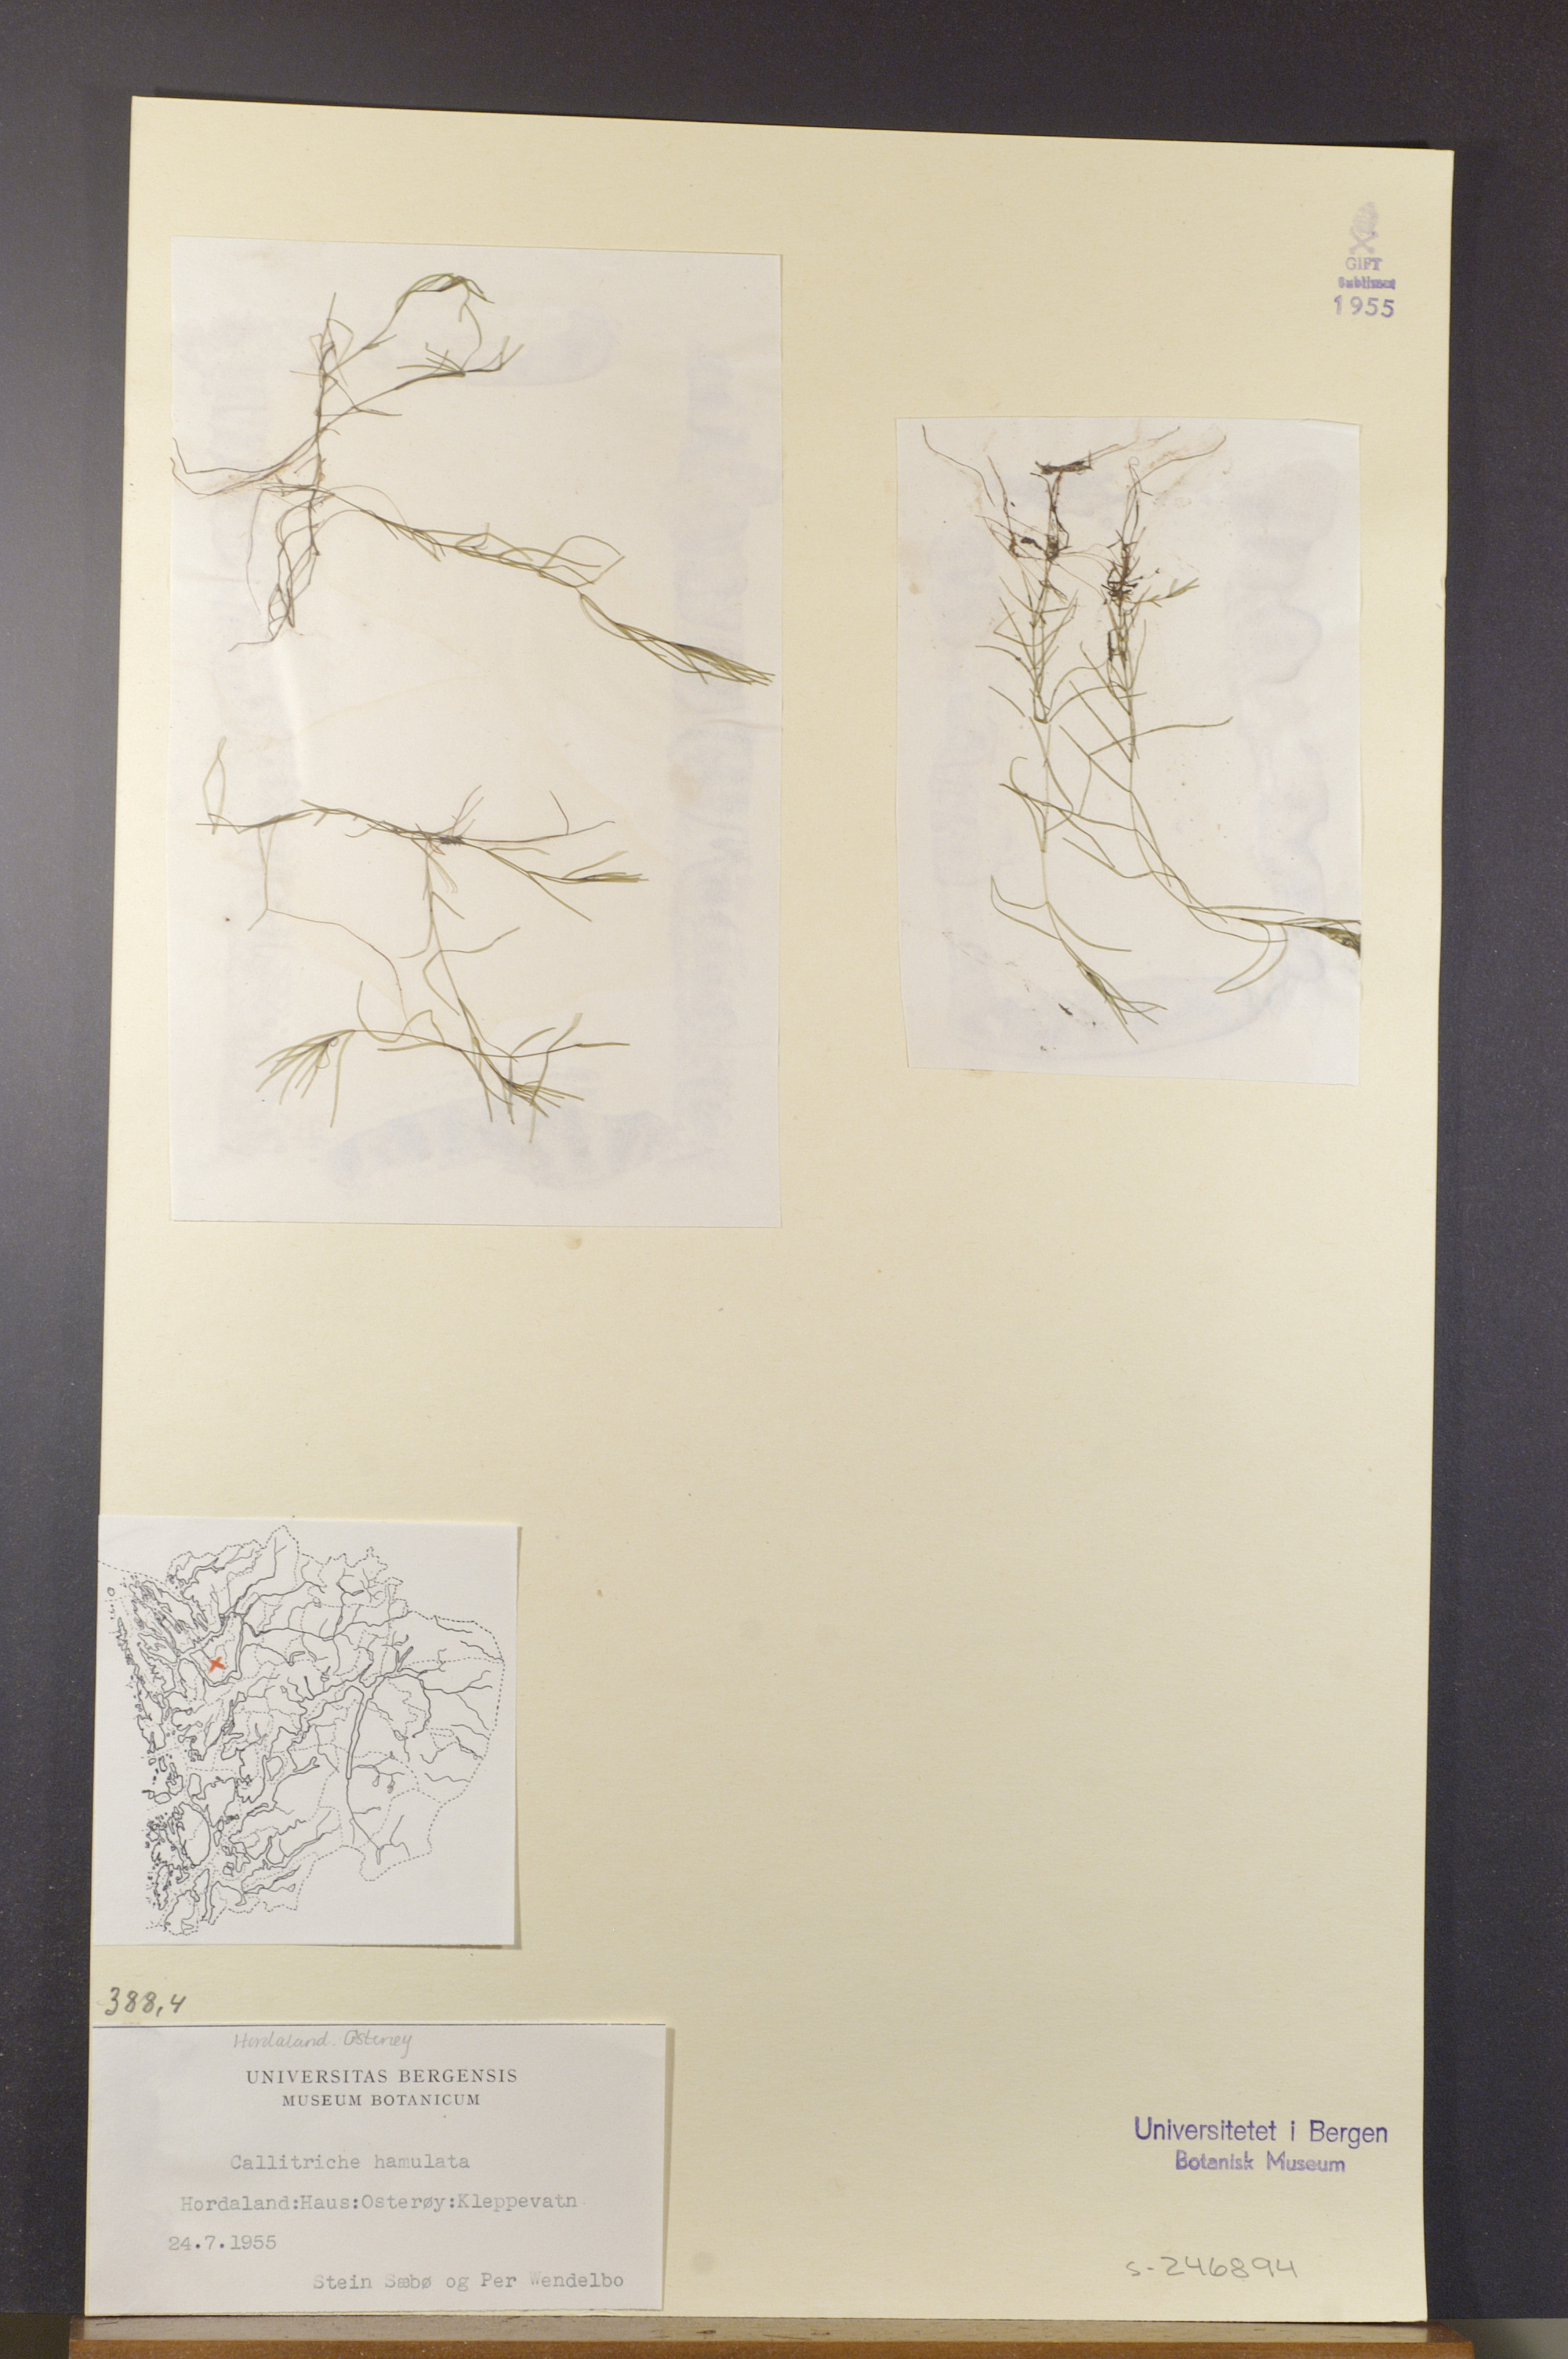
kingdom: Plantae
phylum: Tracheophyta
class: Magnoliopsida
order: Lamiales
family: Plantaginaceae
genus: Callitriche
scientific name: Callitriche hamulata
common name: Intermediate water-starwort
